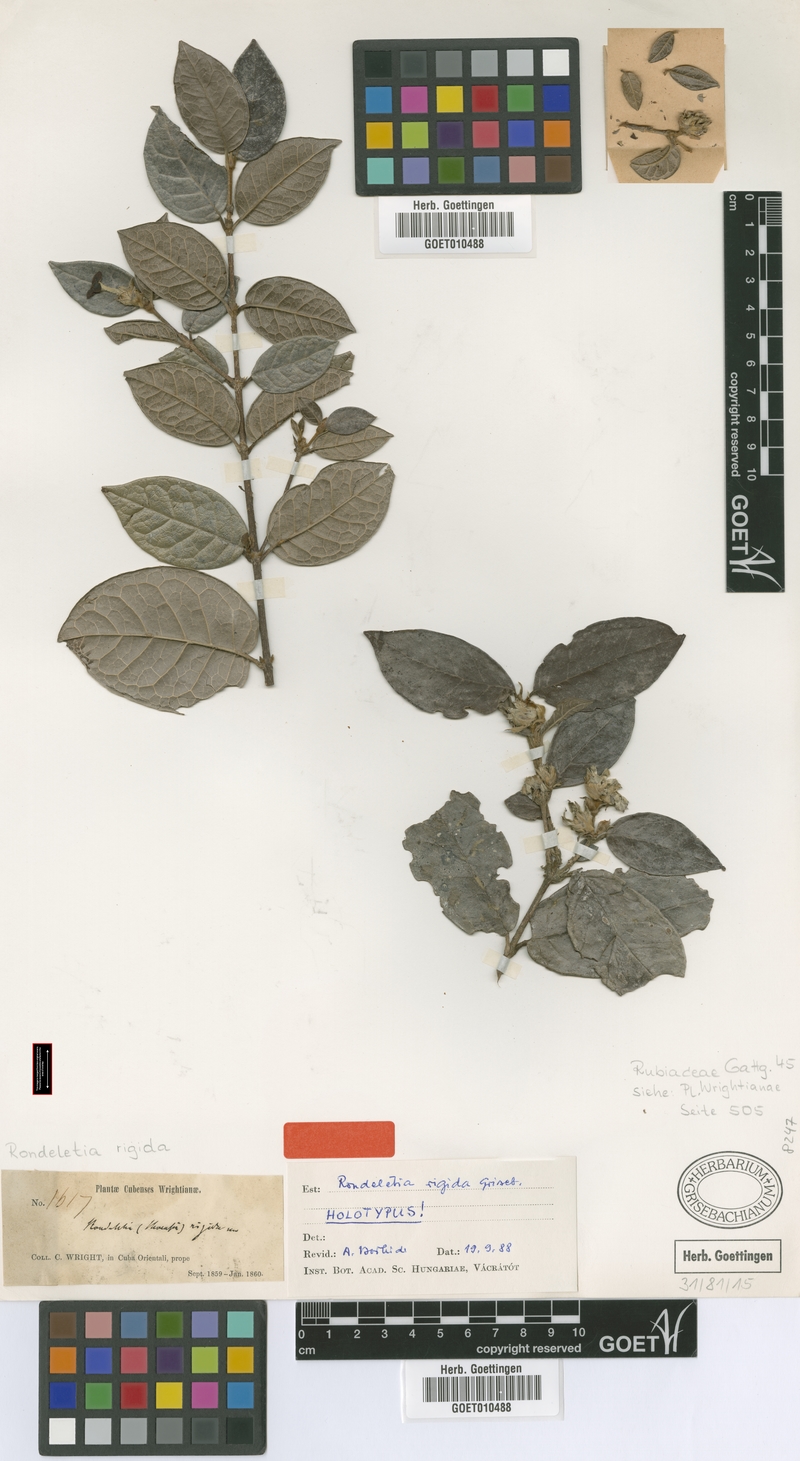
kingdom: Plantae
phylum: Tracheophyta
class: Magnoliopsida
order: Gentianales
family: Rubiaceae
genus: Rondeletia
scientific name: Rondeletia rigida
